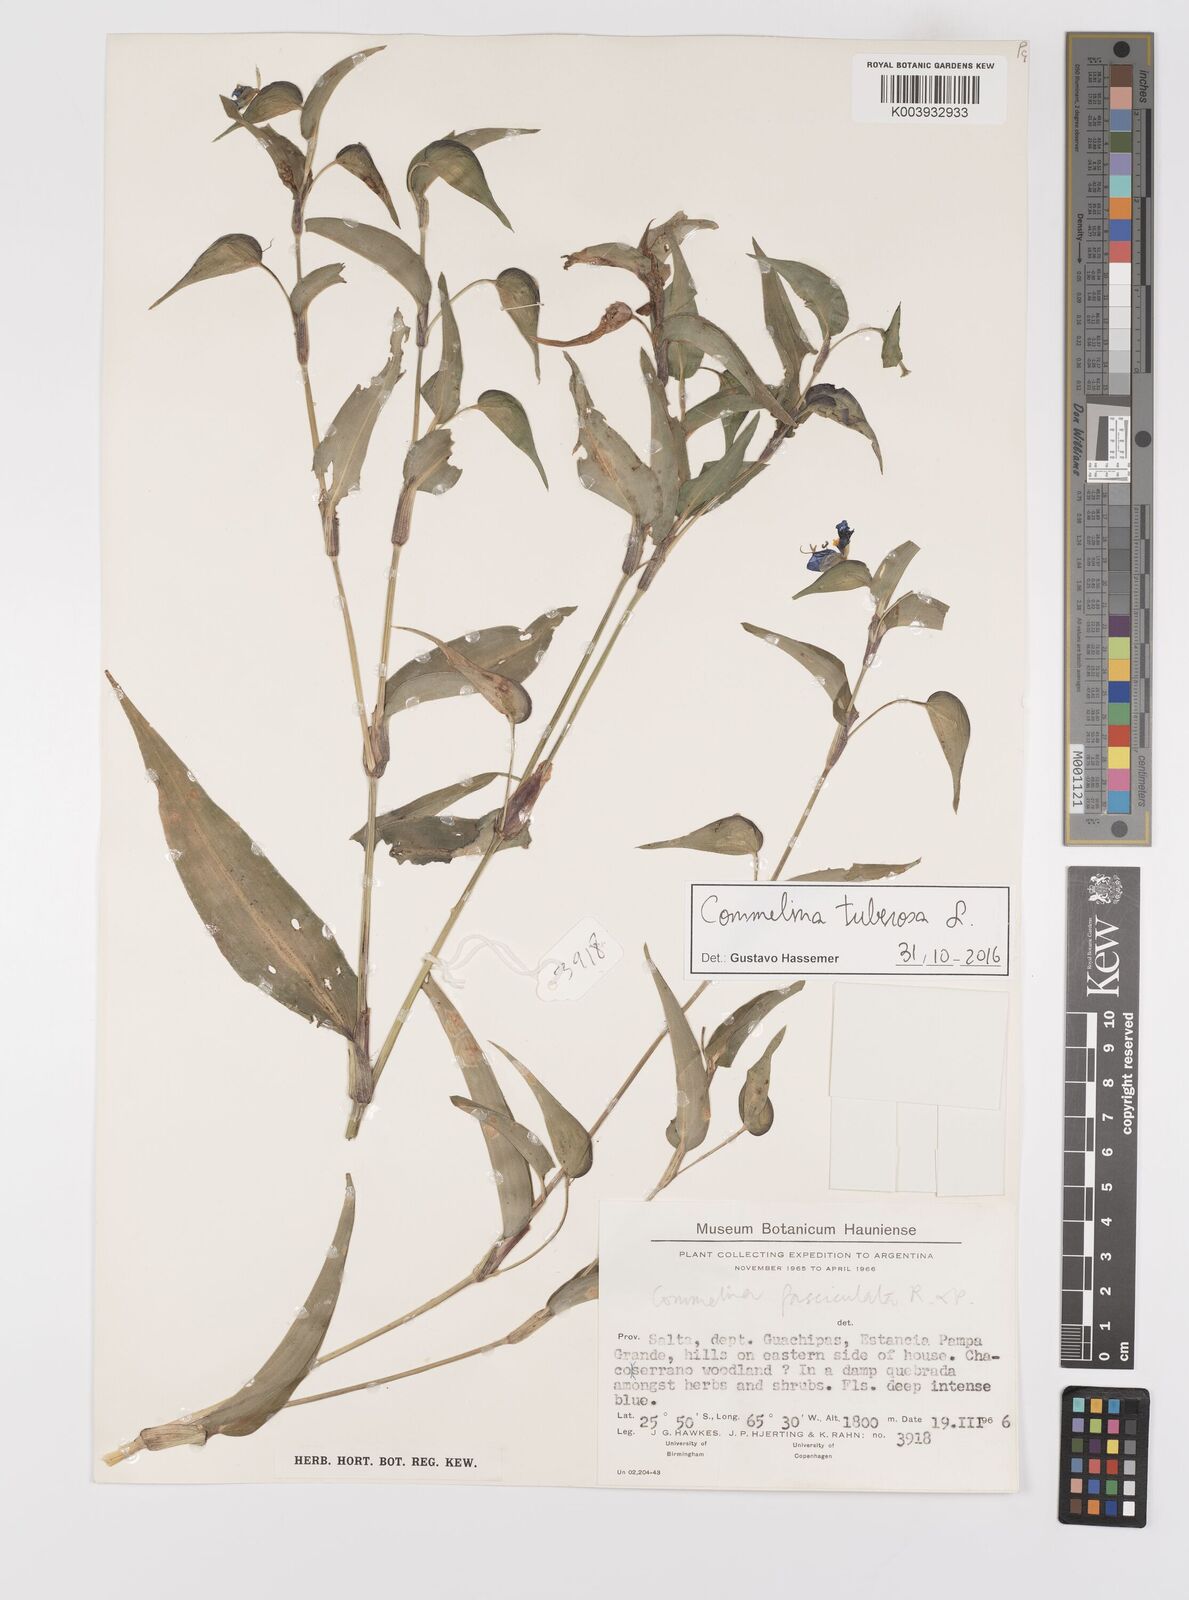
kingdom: Plantae
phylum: Tracheophyta
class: Liliopsida
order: Commelinales
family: Commelinaceae
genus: Commelina
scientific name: Commelina tuberosa
